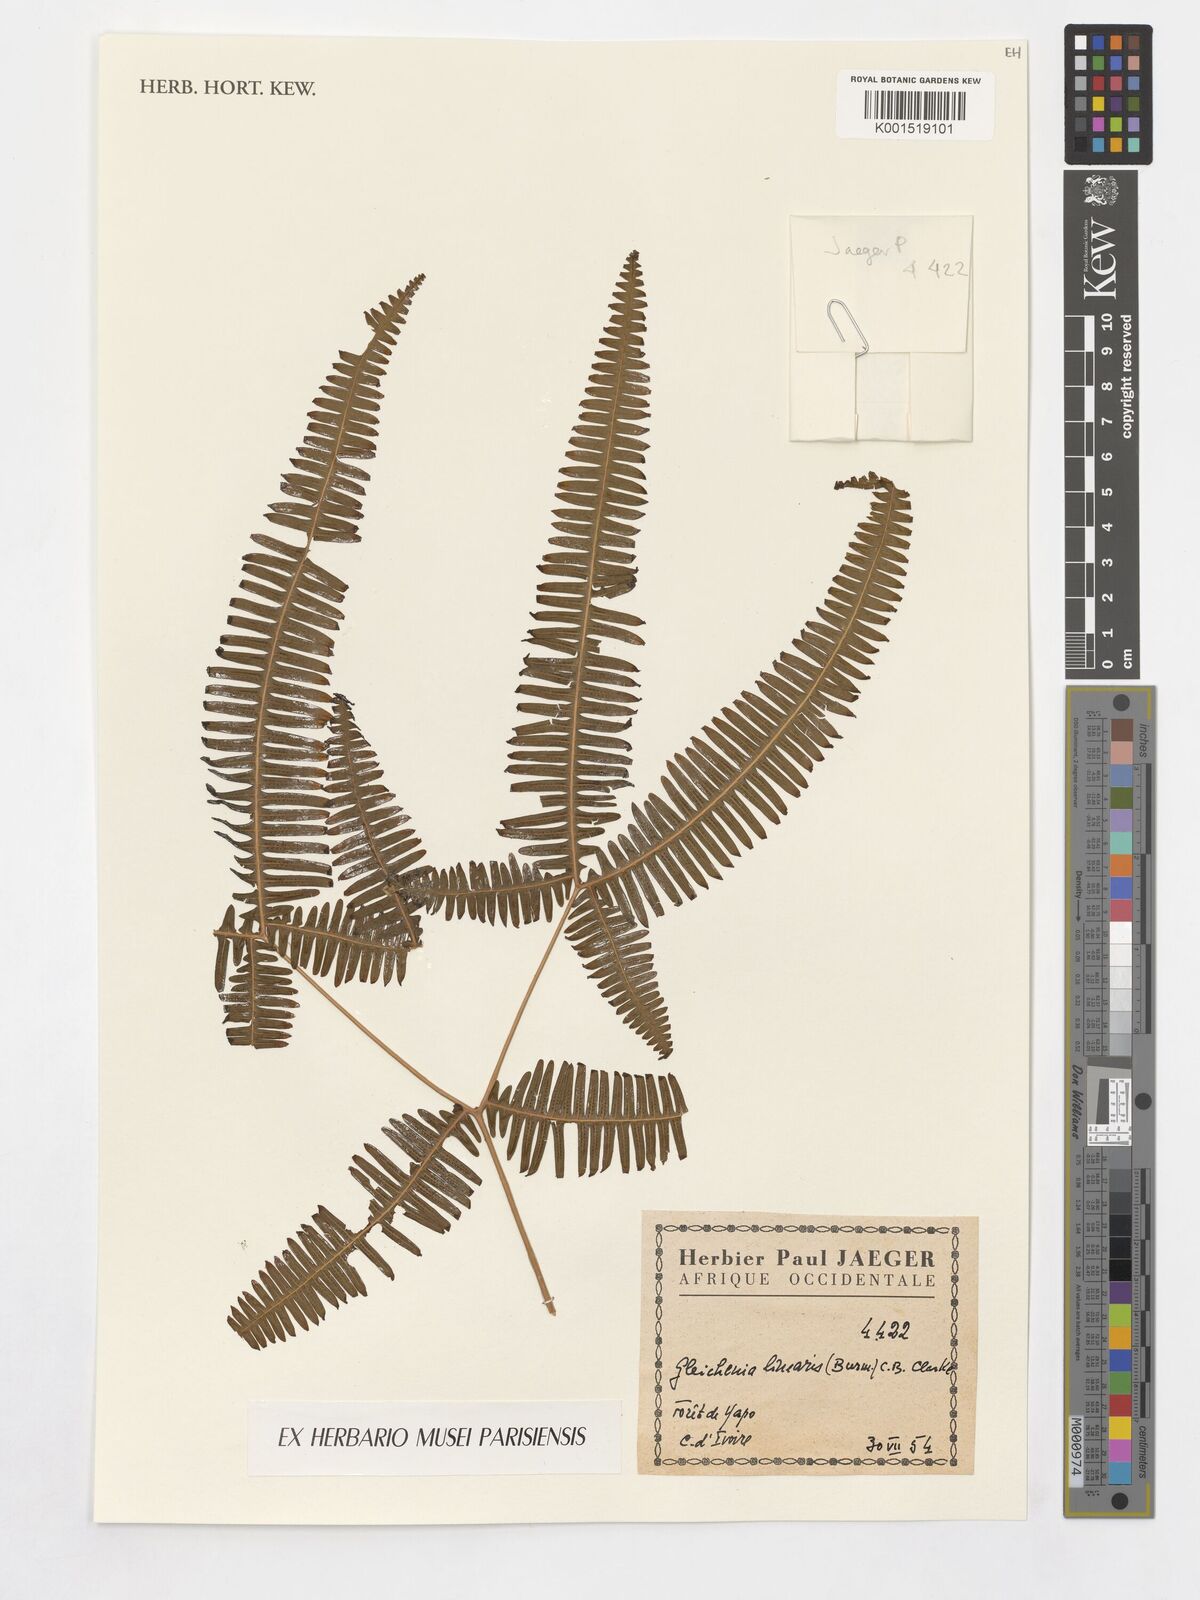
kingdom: Plantae
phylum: Tracheophyta
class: Polypodiopsida
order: Gleicheniales
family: Gleicheniaceae
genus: Dicranopteris
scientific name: Dicranopteris linearis
